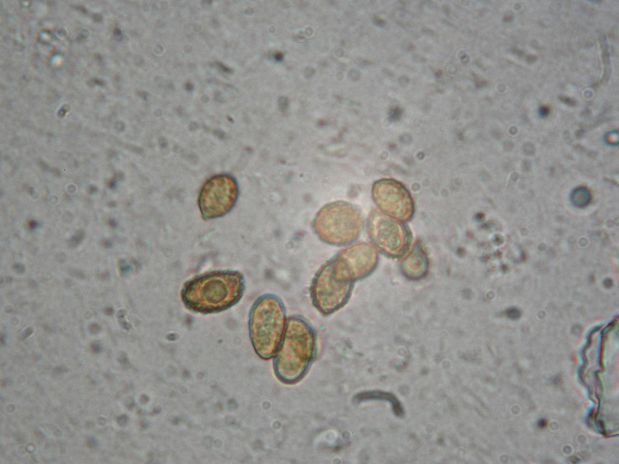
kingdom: Fungi
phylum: Basidiomycota
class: Agaricomycetes
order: Agaricales
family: Cortinariaceae
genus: Cortinarius
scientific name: Cortinarius pilatii
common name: Piláts slørhat
